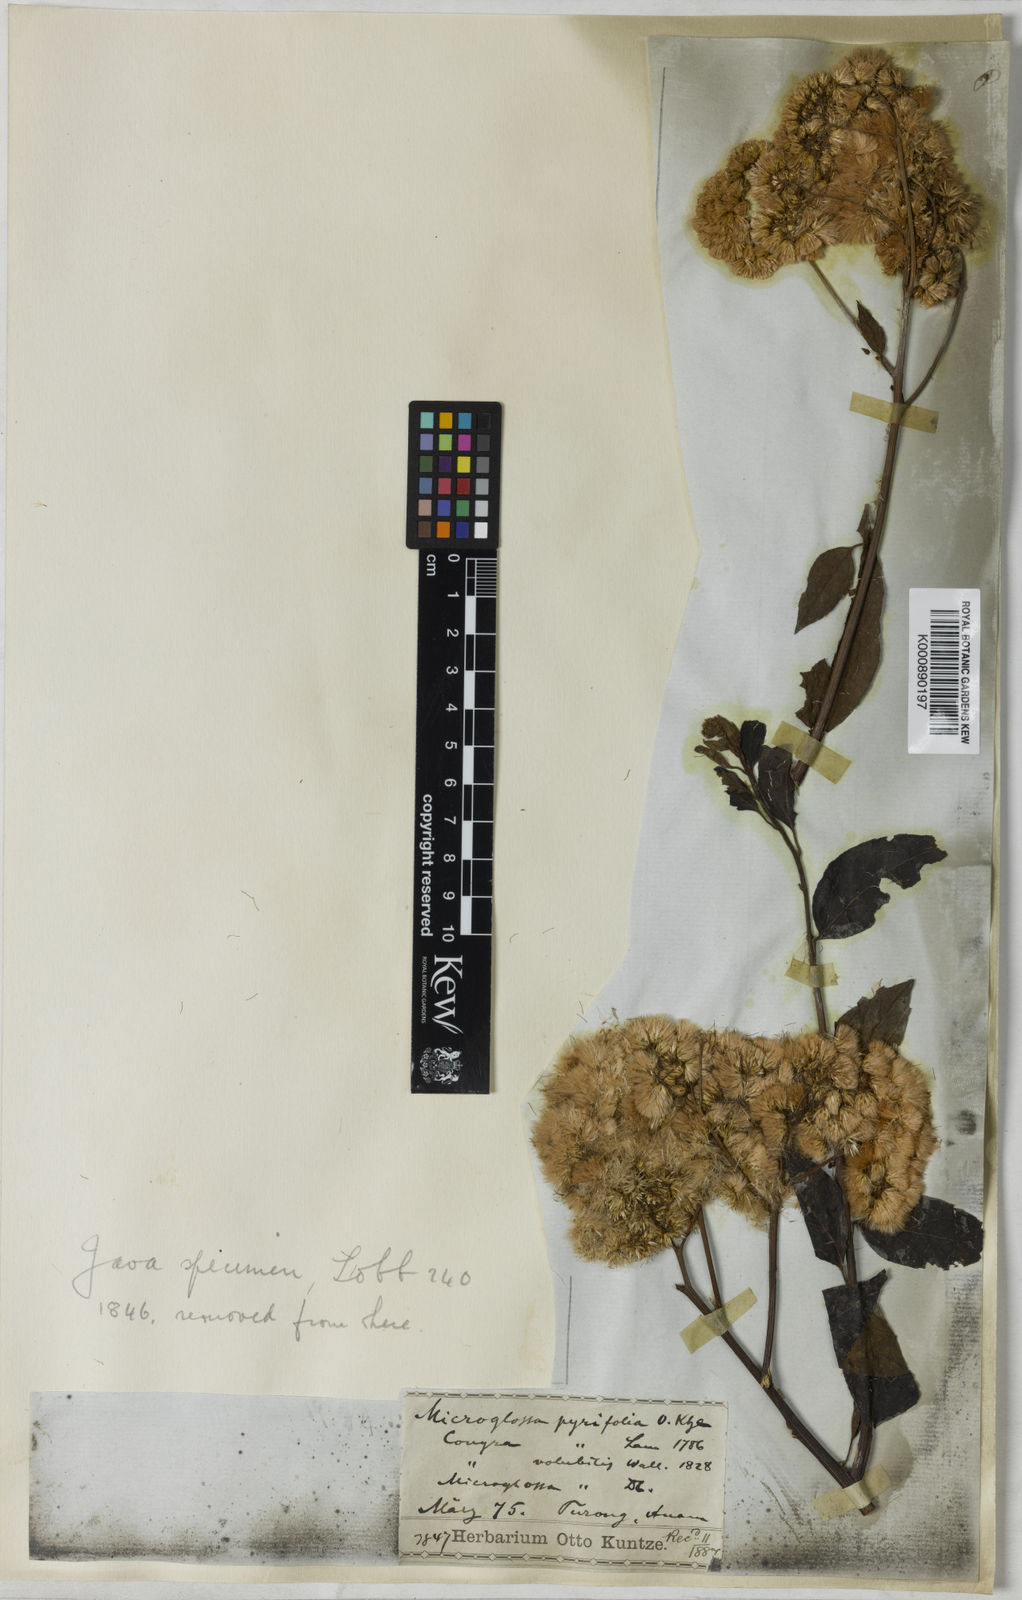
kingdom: Plantae
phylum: Tracheophyta
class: Magnoliopsida
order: Asterales
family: Asteraceae
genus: Microglossa
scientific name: Microglossa
